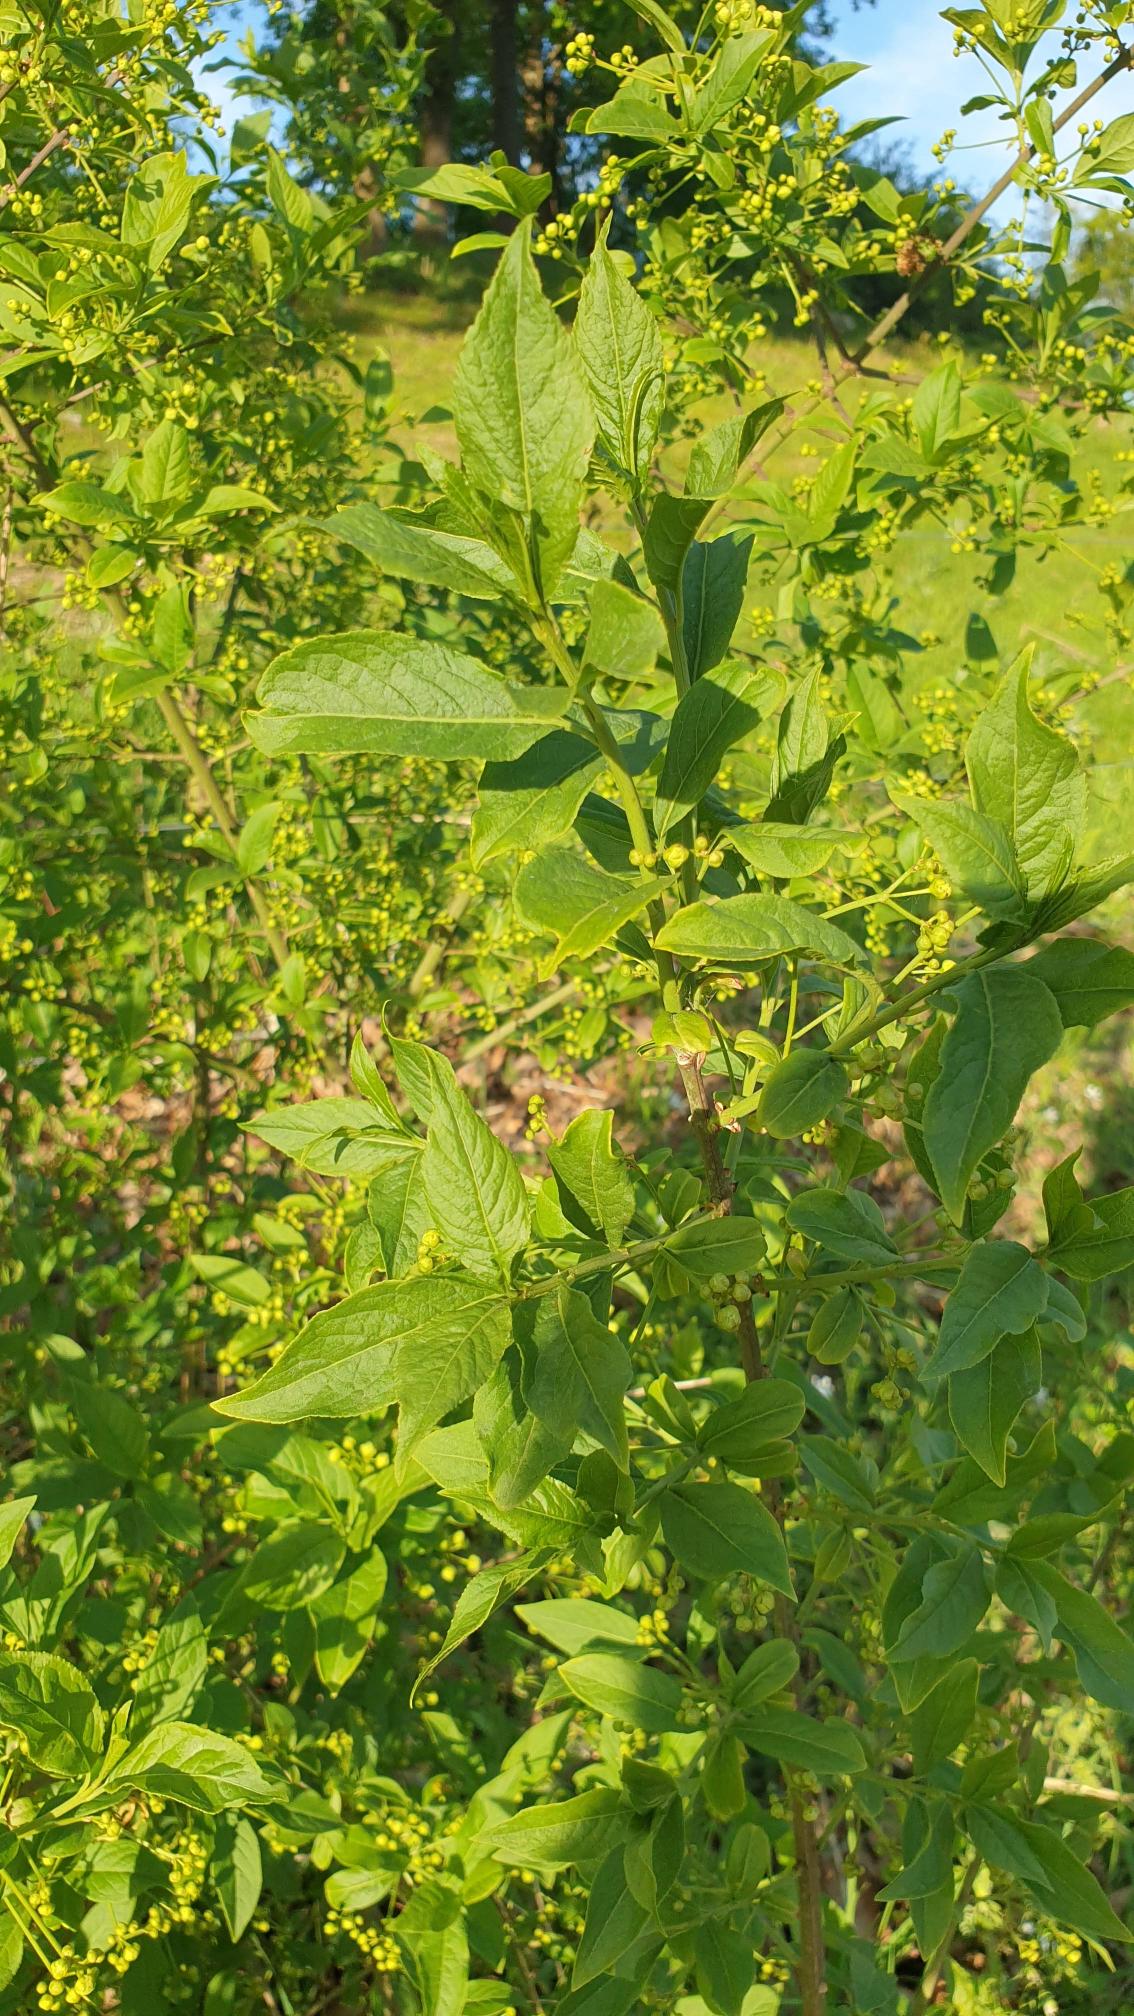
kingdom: Plantae
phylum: Tracheophyta
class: Magnoliopsida
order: Celastrales
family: Celastraceae
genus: Euonymus
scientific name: Euonymus europaeus
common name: Benved
